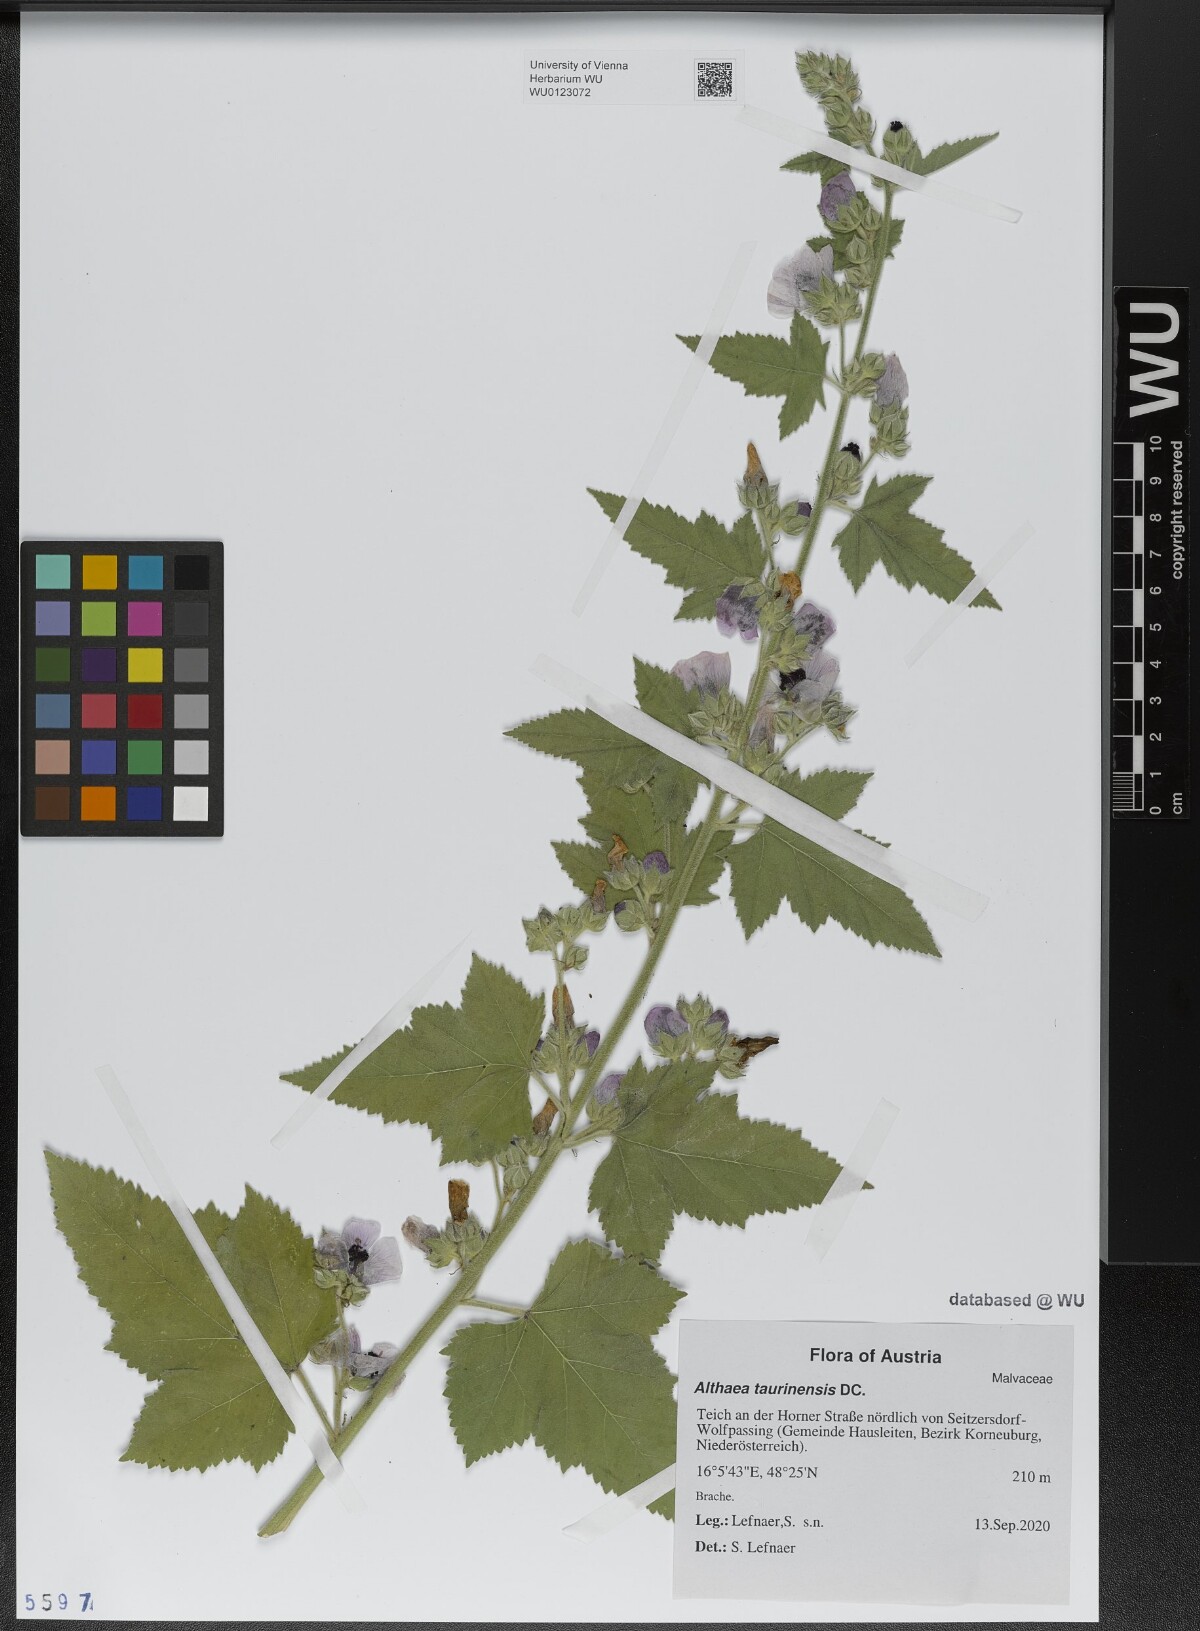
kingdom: Plantae
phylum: Tracheophyta
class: Magnoliopsida
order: Malvales
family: Malvaceae
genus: Althaea
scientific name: Althaea taurinensis
